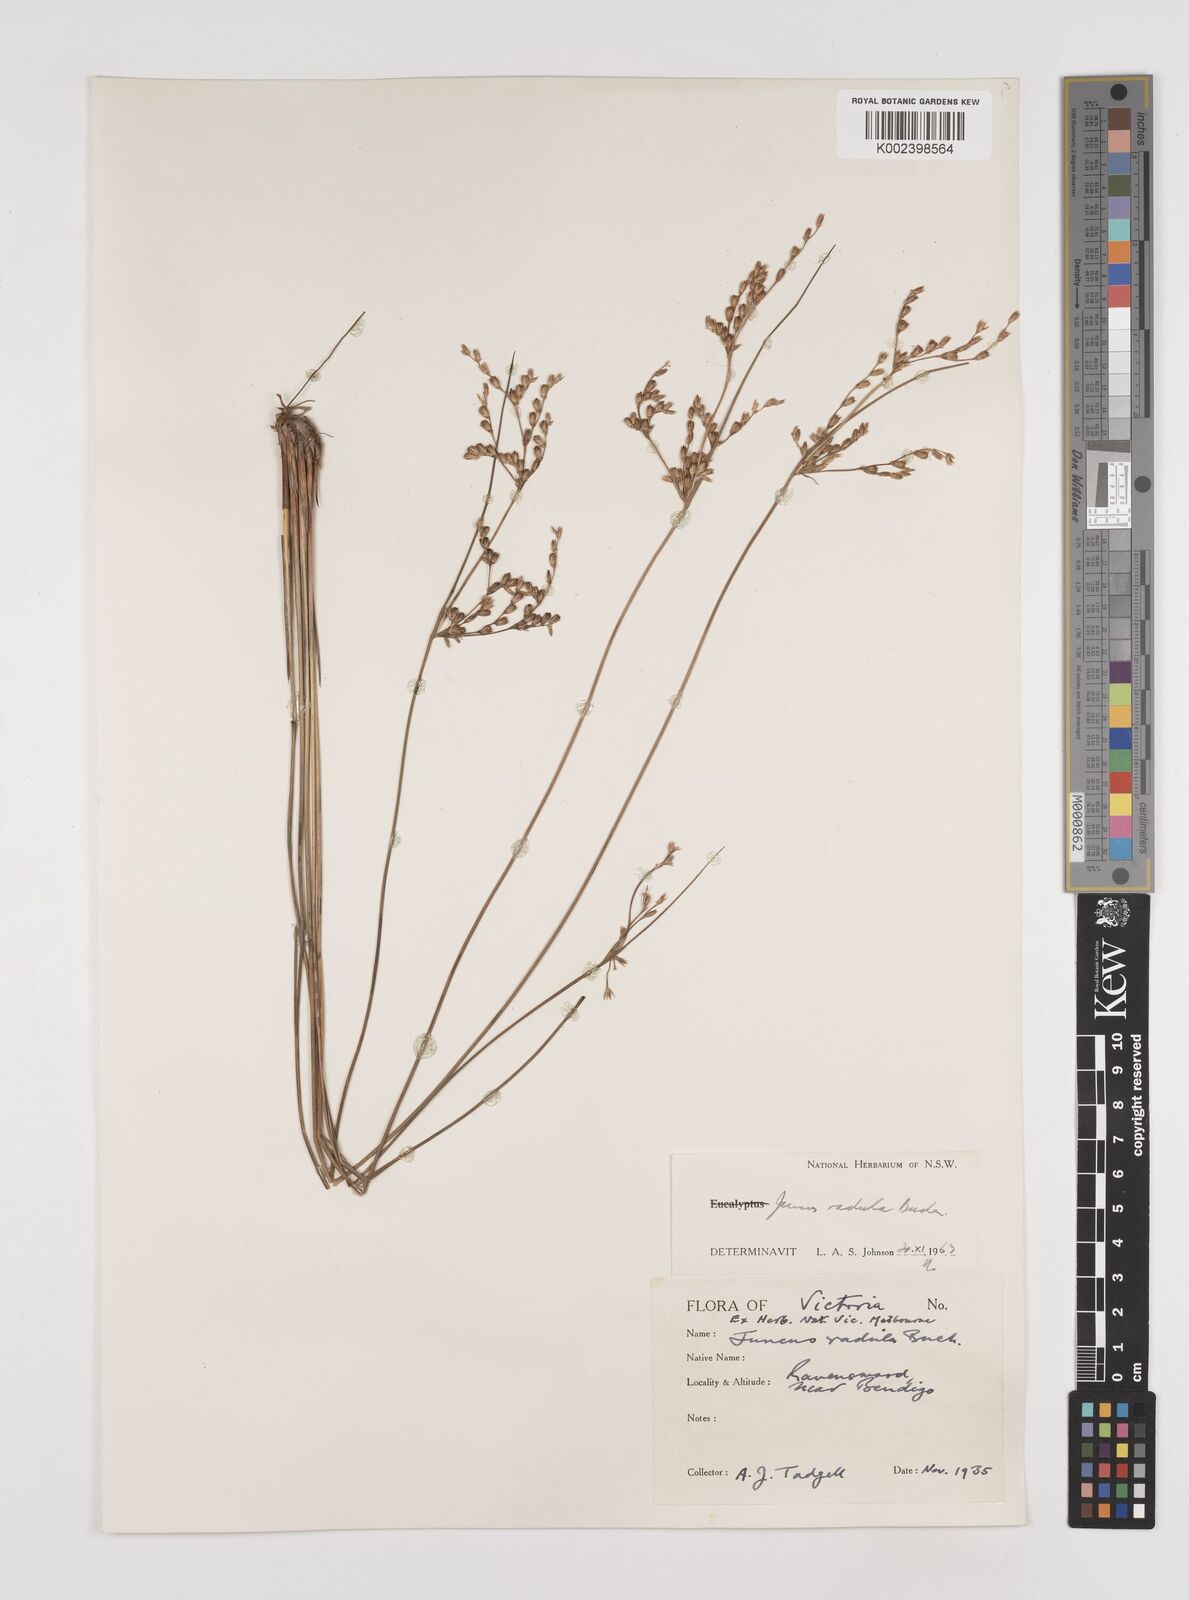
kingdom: Plantae
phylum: Tracheophyta
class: Liliopsida
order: Poales
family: Juncaceae
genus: Juncus
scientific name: Juncus radula
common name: Hoary rush
